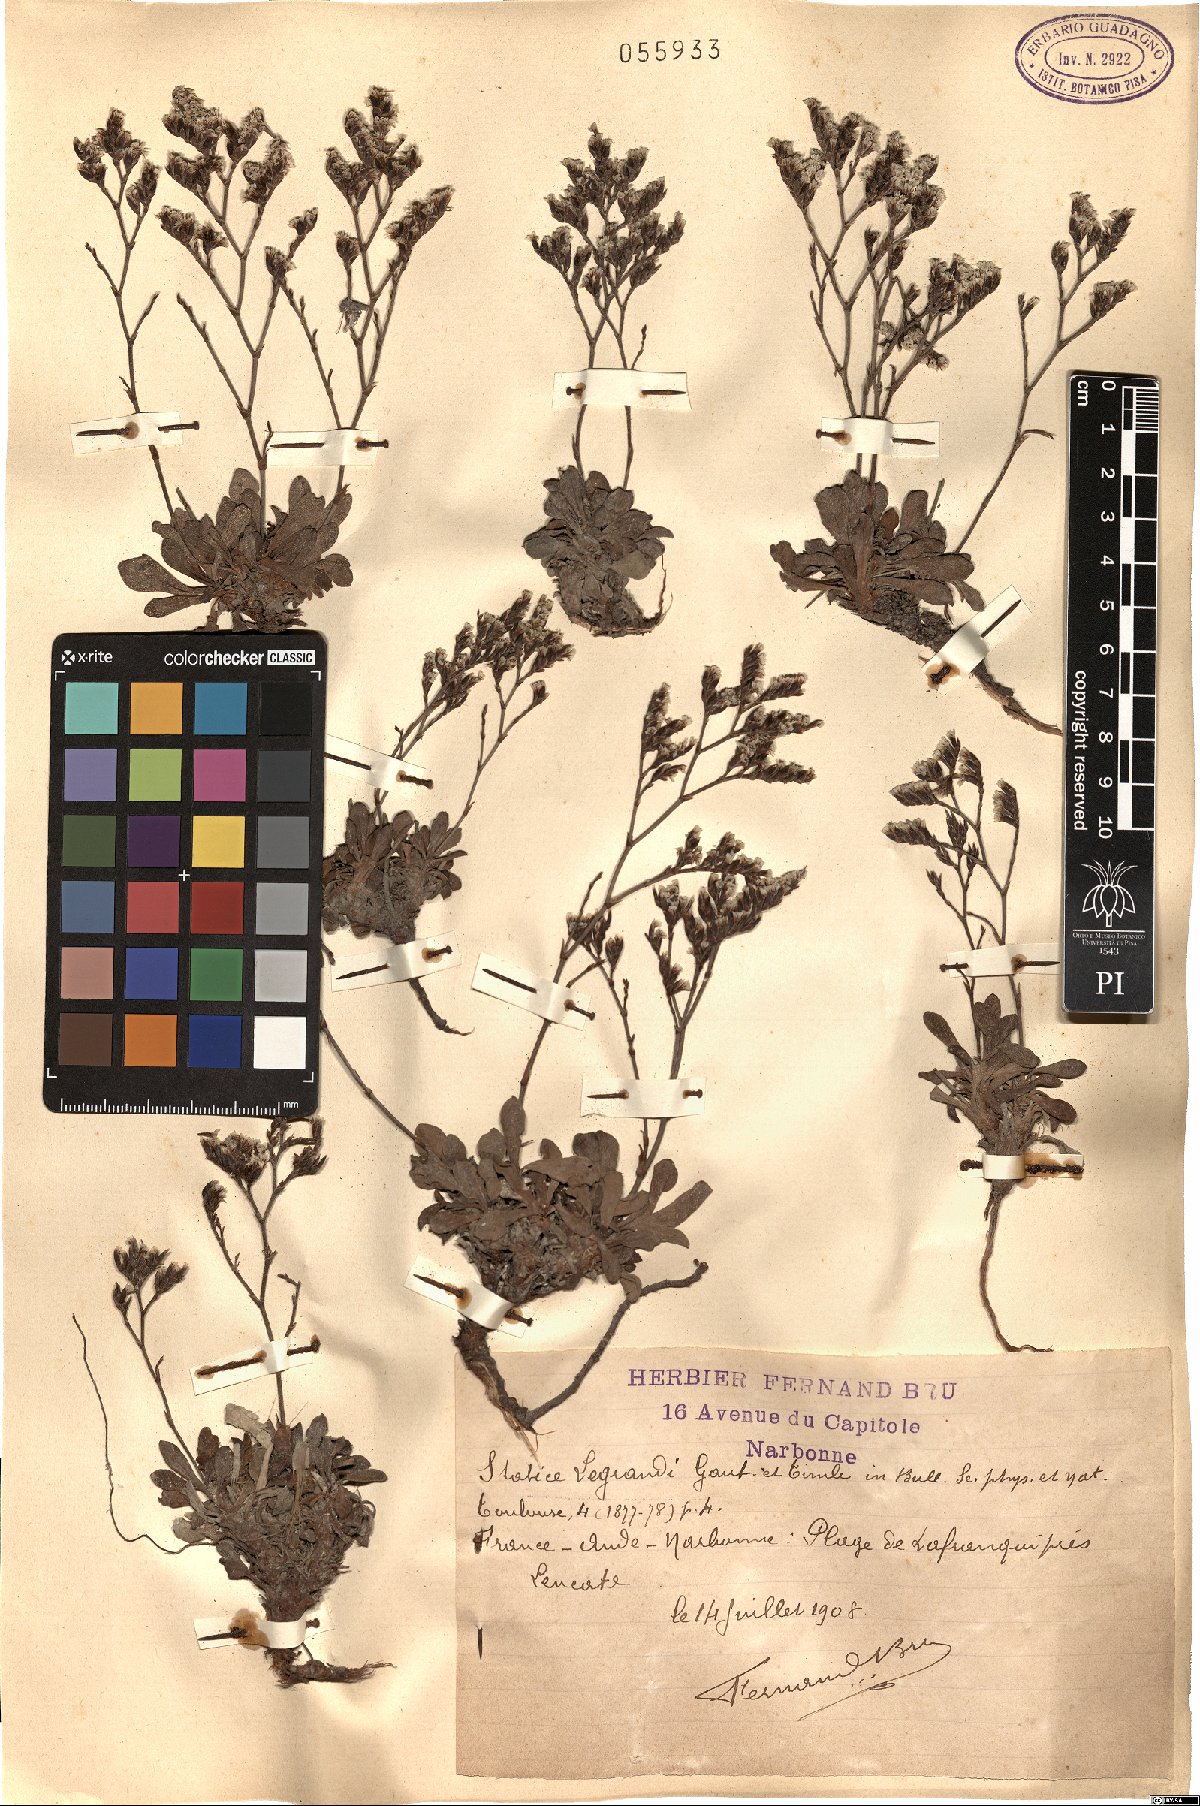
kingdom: Plantae
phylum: Tracheophyta
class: Magnoliopsida
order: Caryophyllales
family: Plumbaginaceae
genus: Limonium
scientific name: Limonium legrandii
